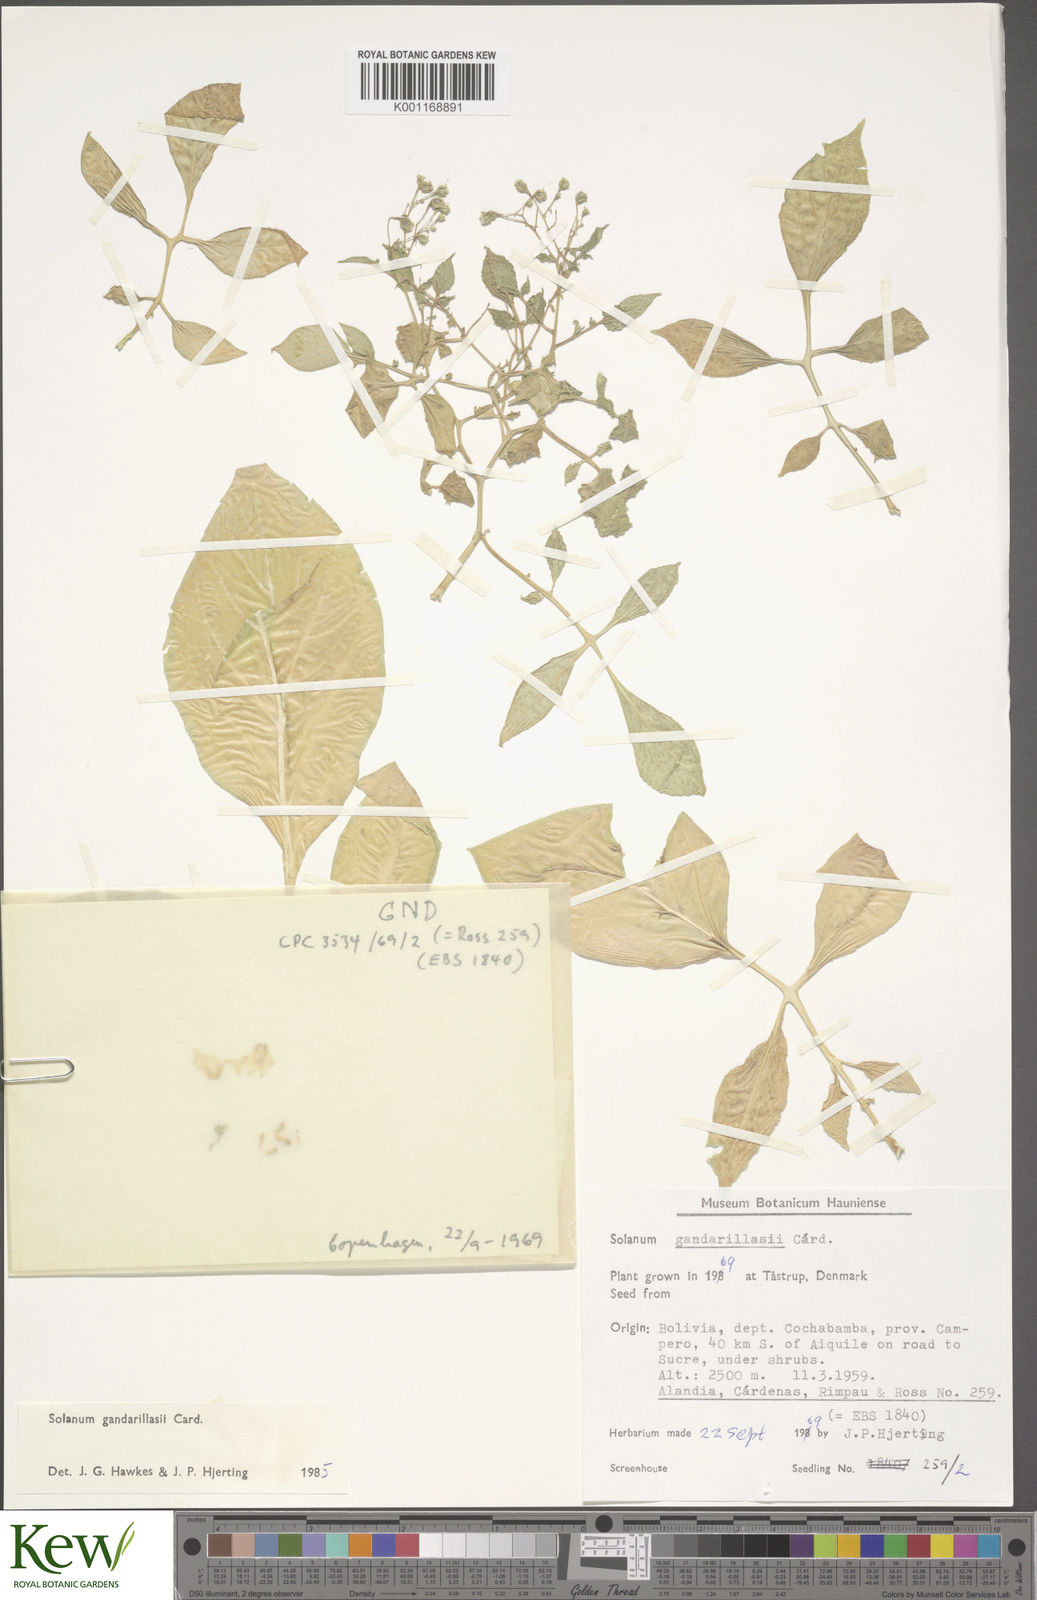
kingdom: Plantae
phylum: Tracheophyta
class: Magnoliopsida
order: Solanales
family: Solanaceae
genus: Solanum
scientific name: Solanum
